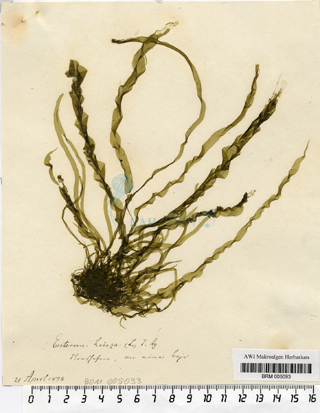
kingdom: Plantae
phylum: Chlorophyta
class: Ulvophyceae
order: Ulvales
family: Ulvaceae
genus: Ulva
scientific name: Ulva linza
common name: Green string lettuce
